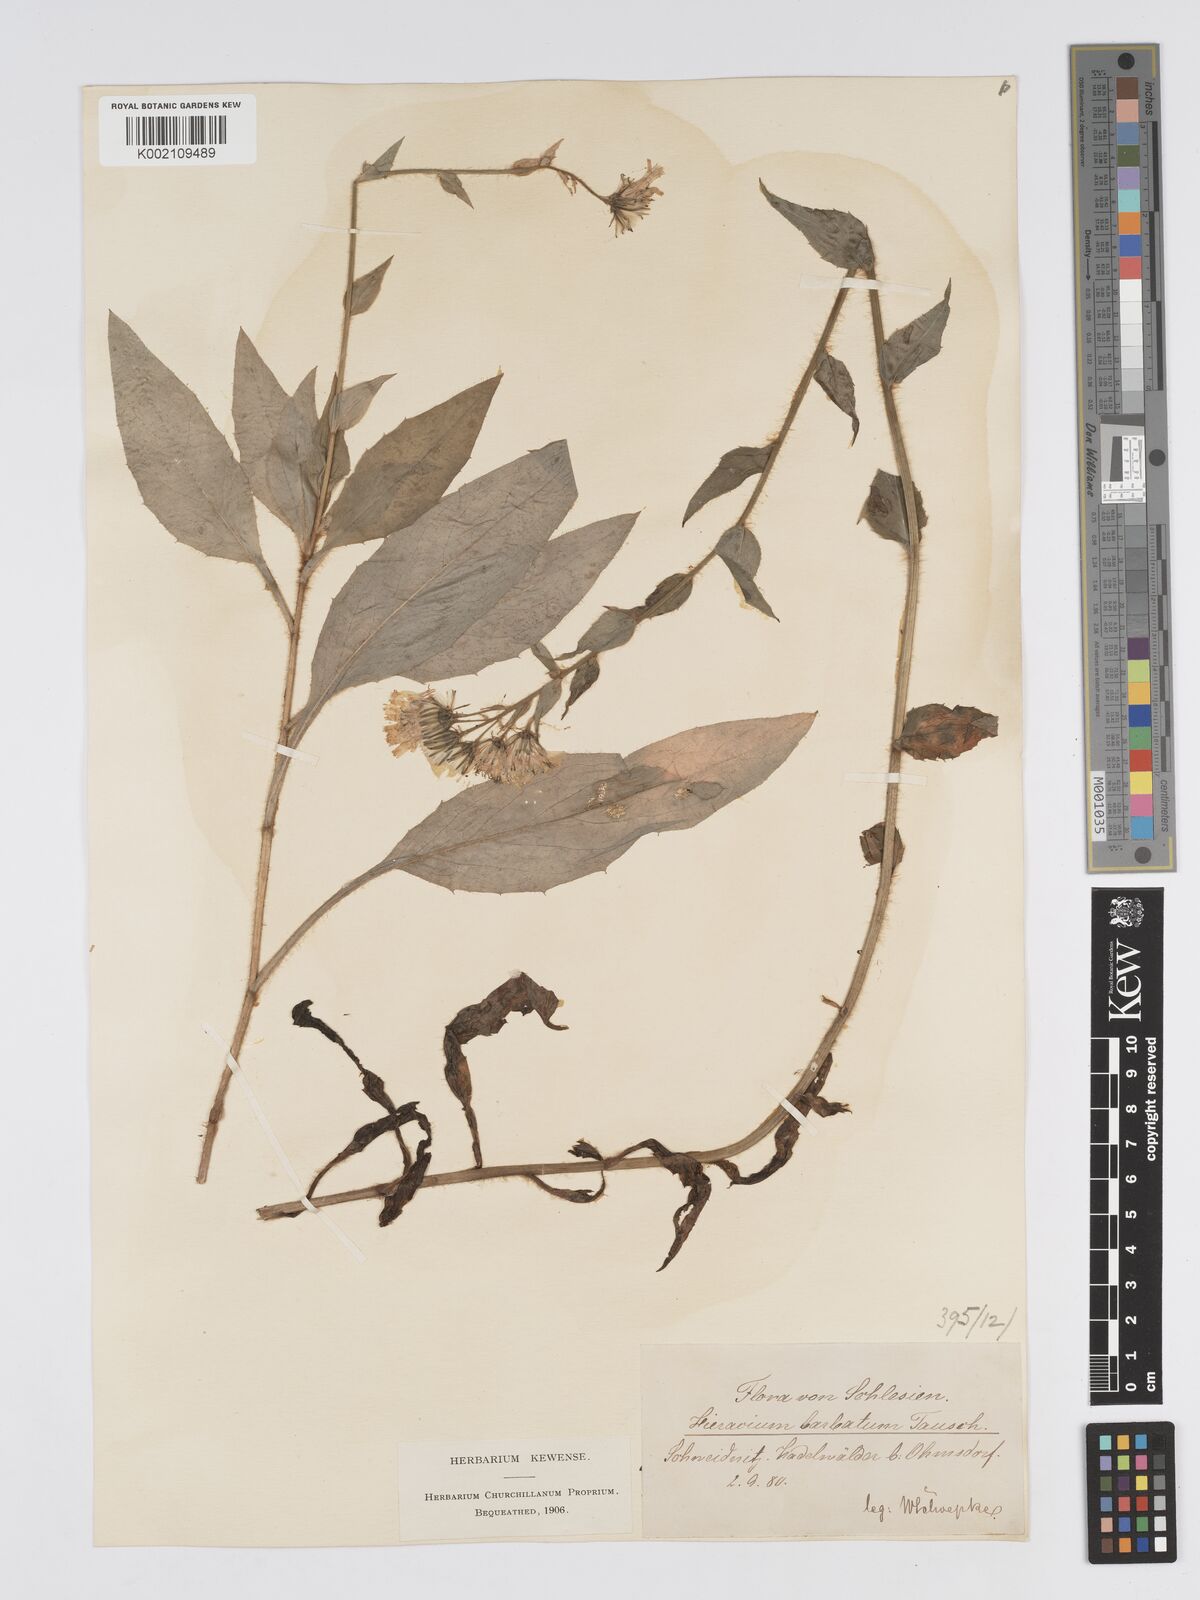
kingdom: Plantae
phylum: Tracheophyta
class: Magnoliopsida
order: Asterales
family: Asteraceae
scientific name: Asteraceae
